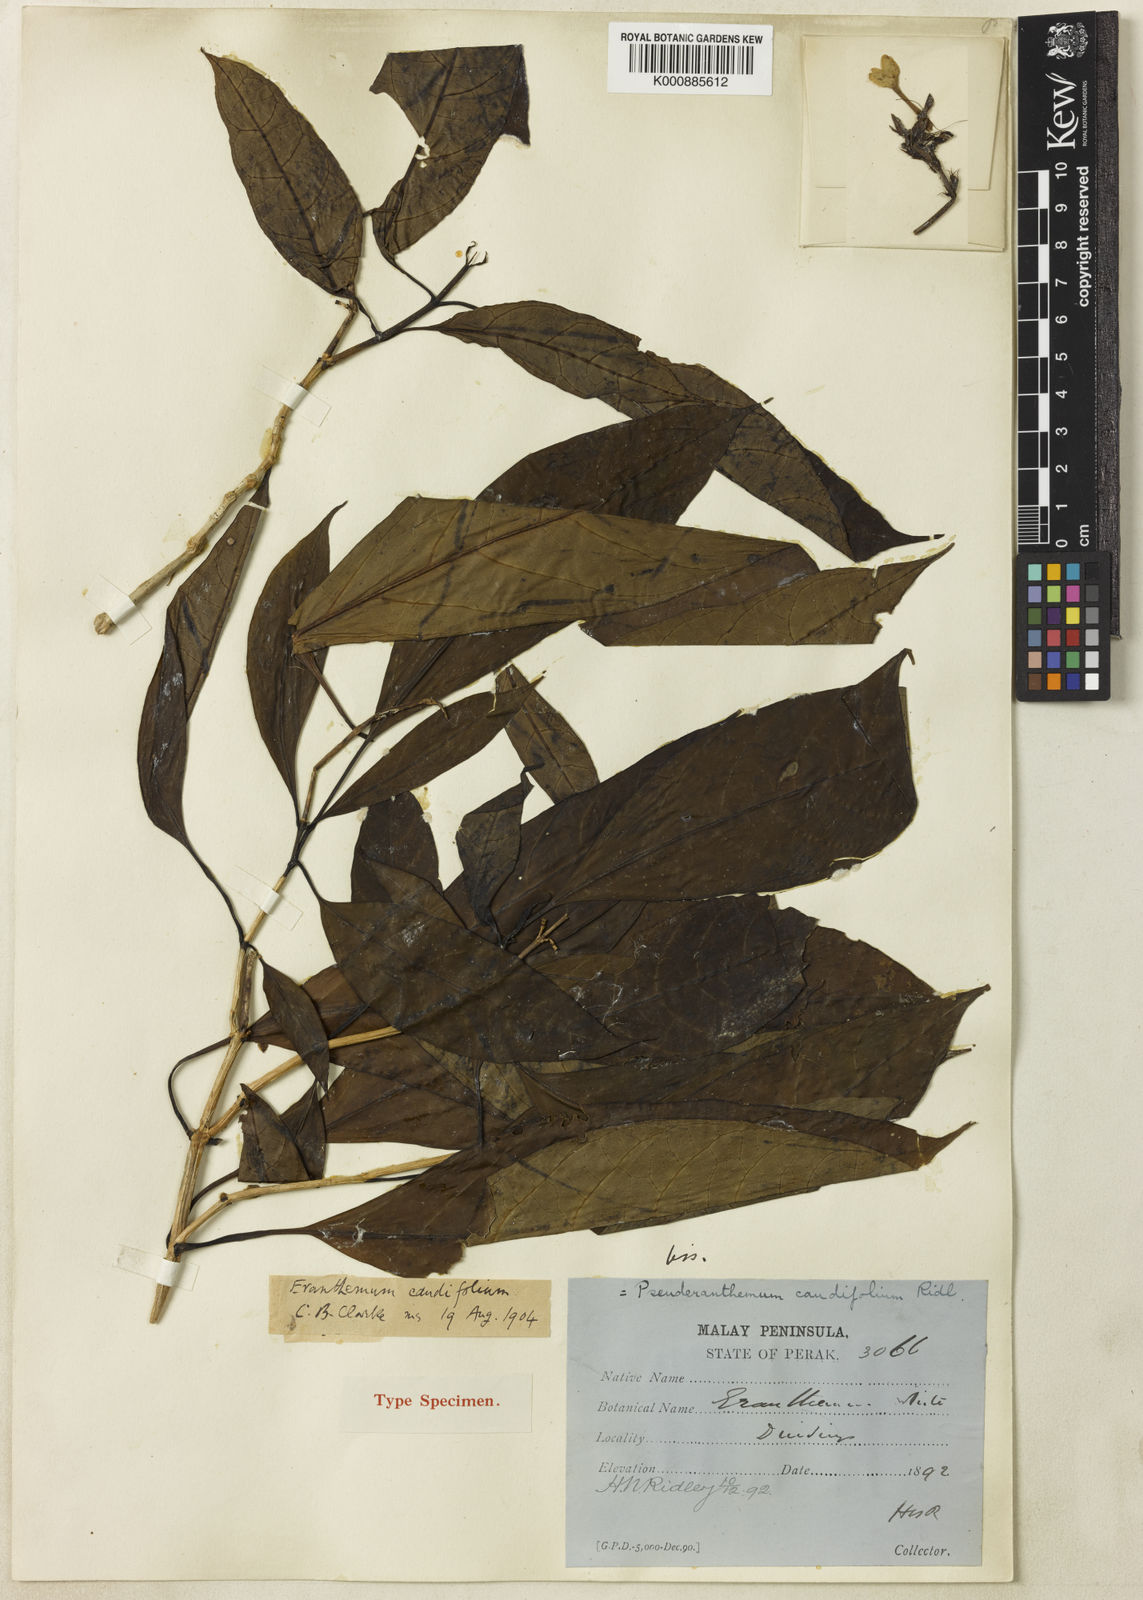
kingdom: Plantae
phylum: Tracheophyta
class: Magnoliopsida
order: Lamiales
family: Acanthaceae
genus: Pseuderanthemum
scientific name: Pseuderanthemum caudifolium
